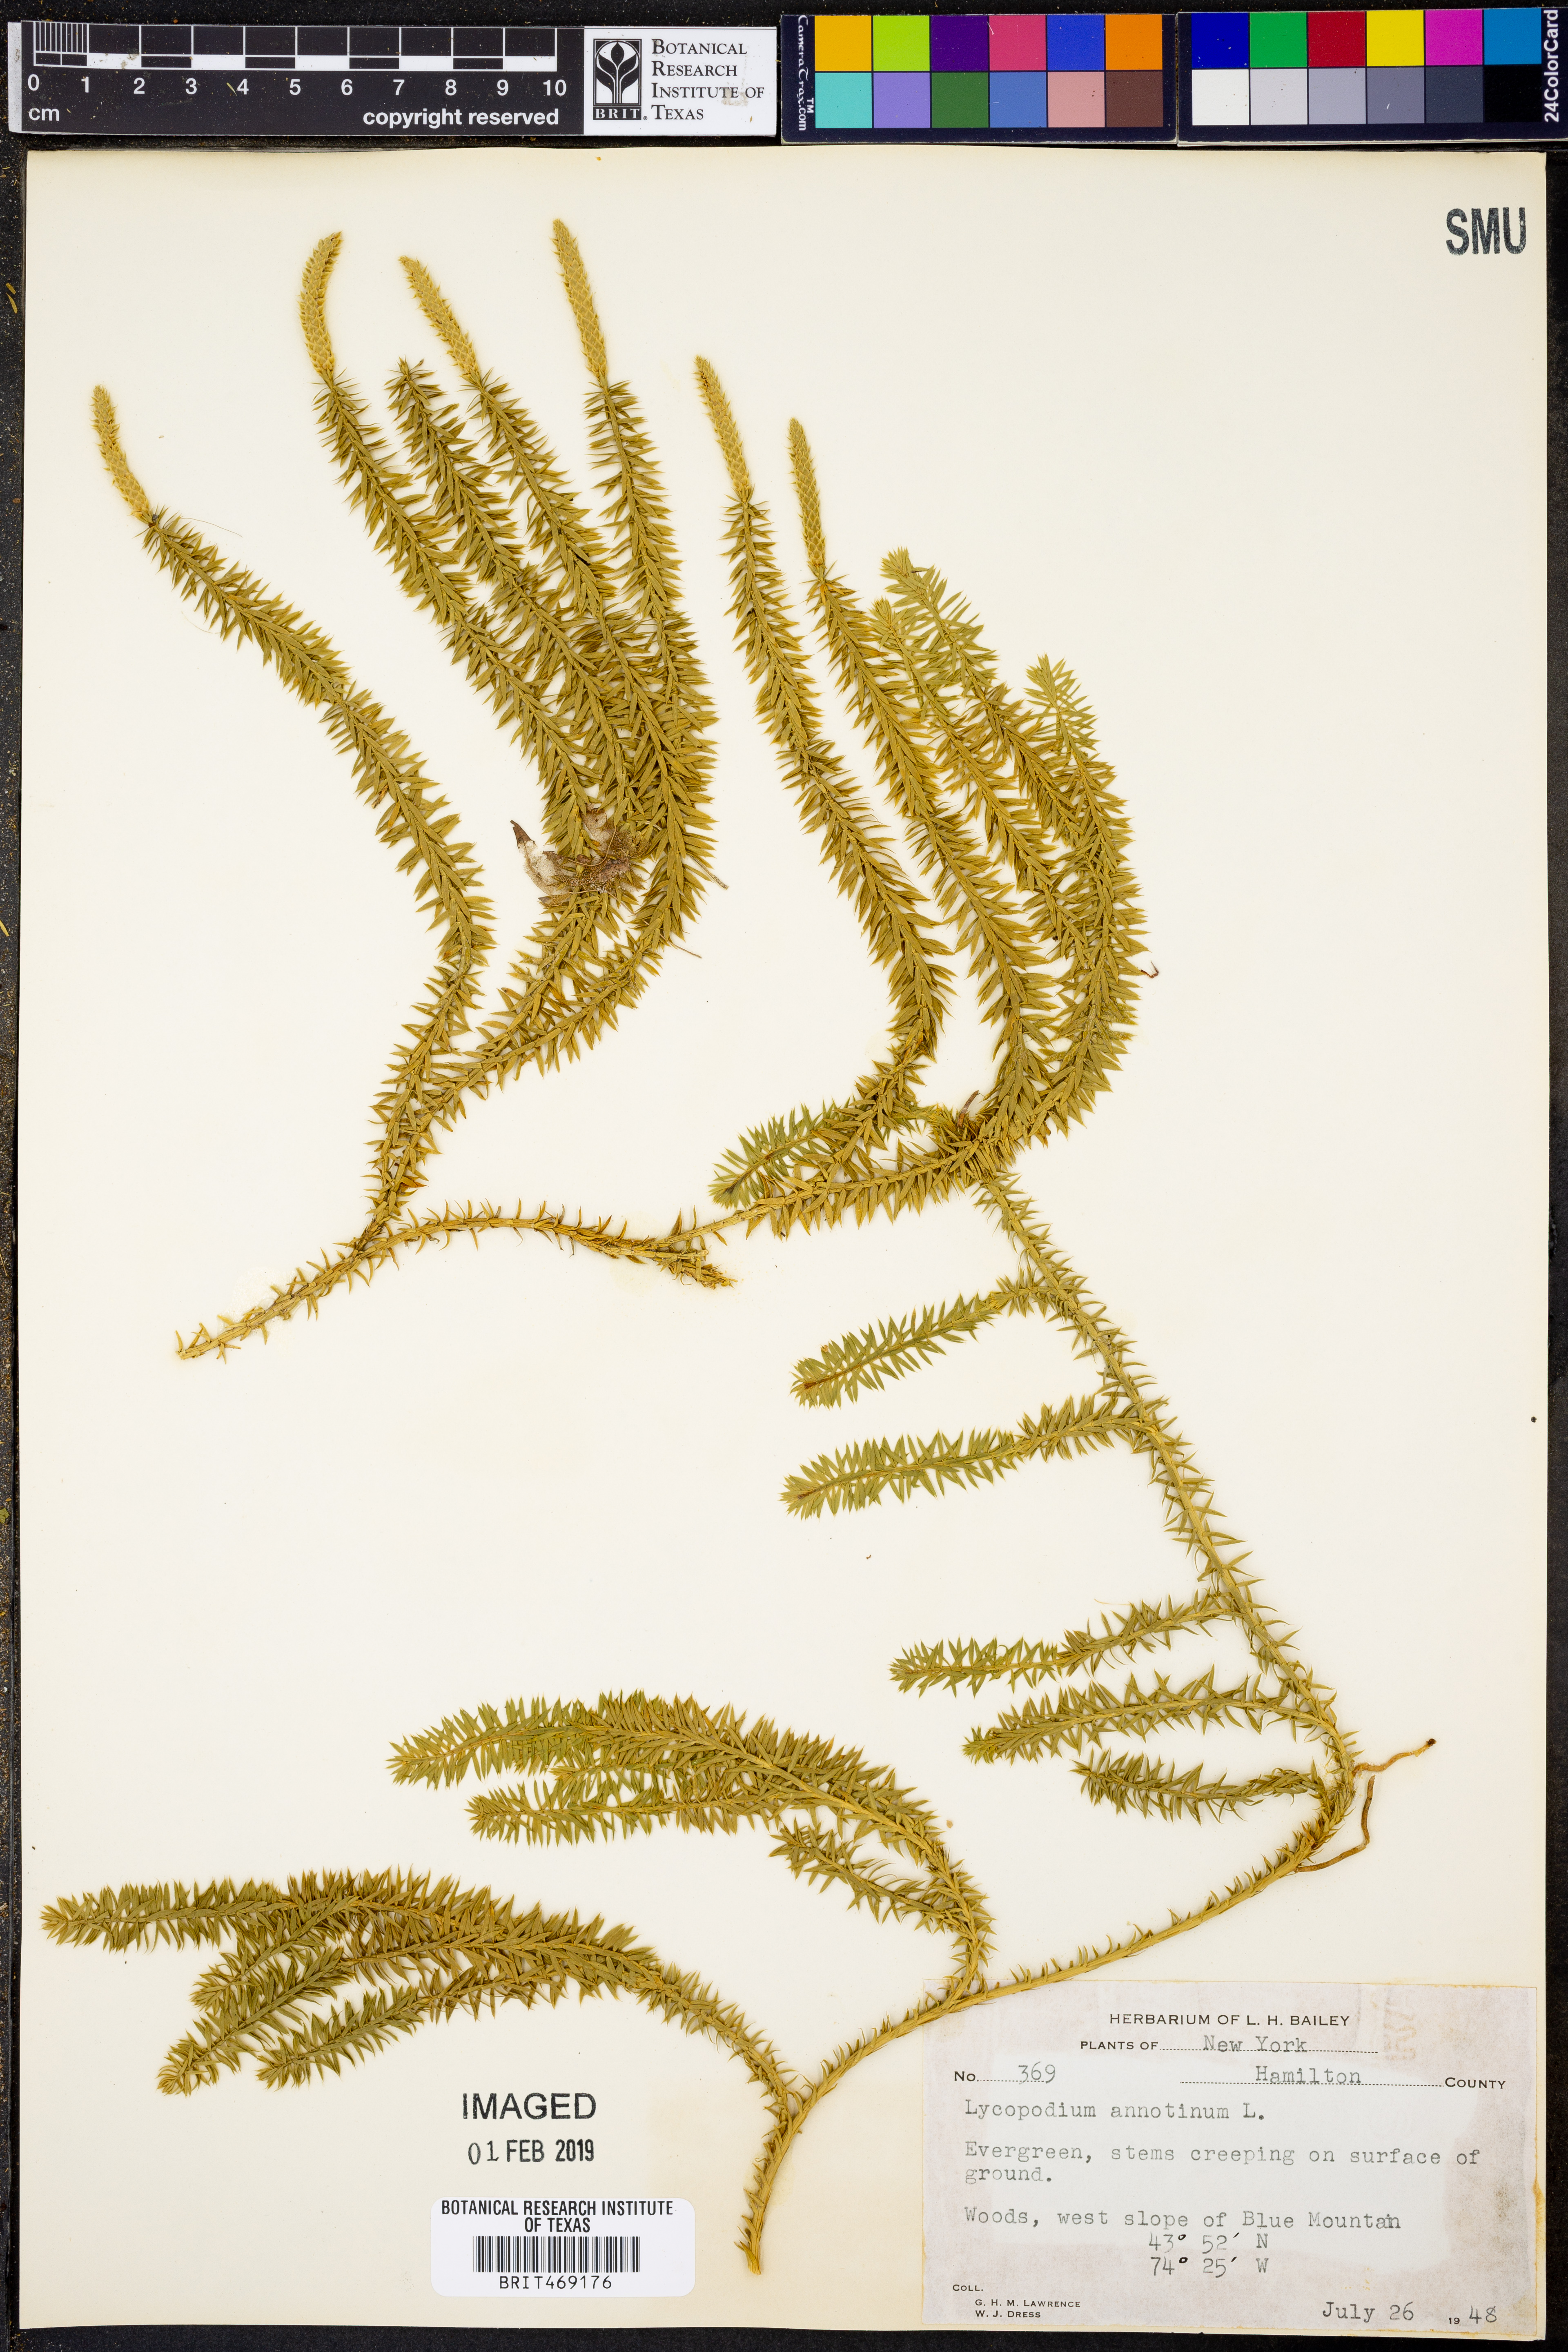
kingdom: Plantae
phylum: Tracheophyta
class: Lycopodiopsida
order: Lycopodiales
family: Lycopodiaceae
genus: Spinulum
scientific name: Spinulum annotinum
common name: Interrupted club-moss
